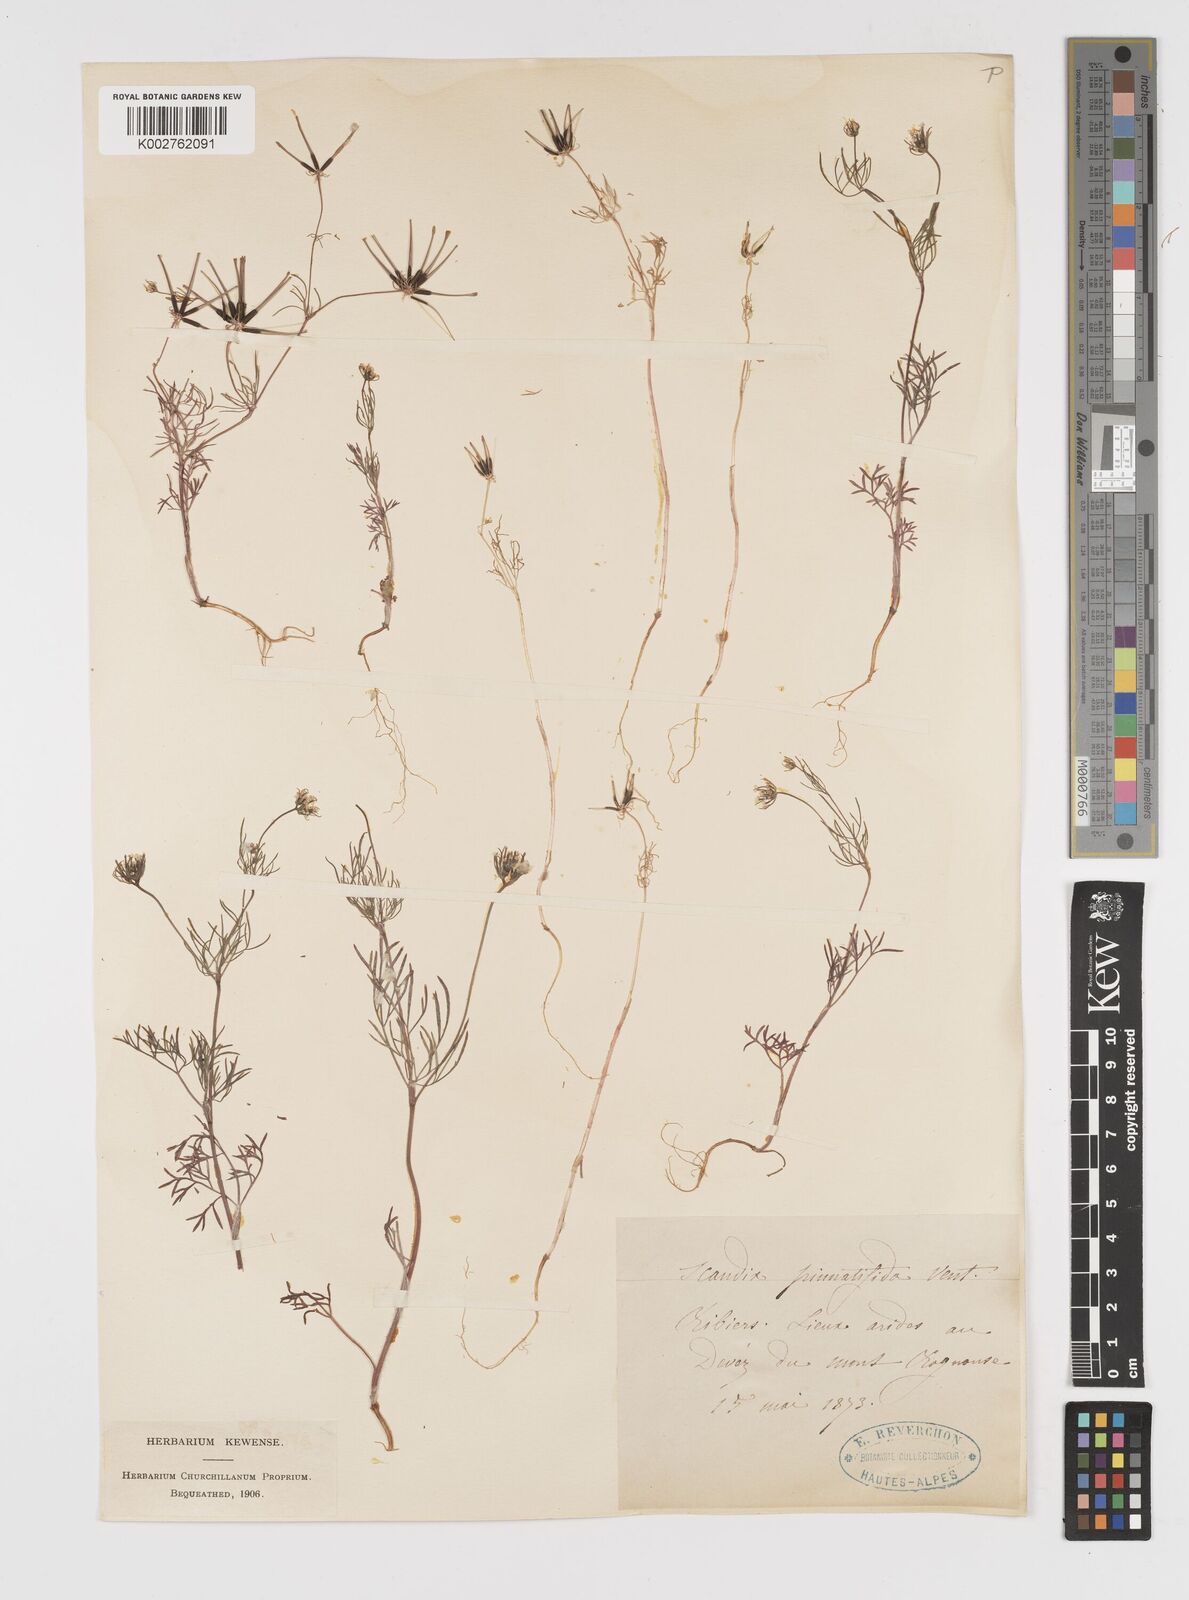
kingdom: Plantae
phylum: Tracheophyta
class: Magnoliopsida
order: Apiales
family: Apiaceae
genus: Scandix
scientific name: Scandix stellata
